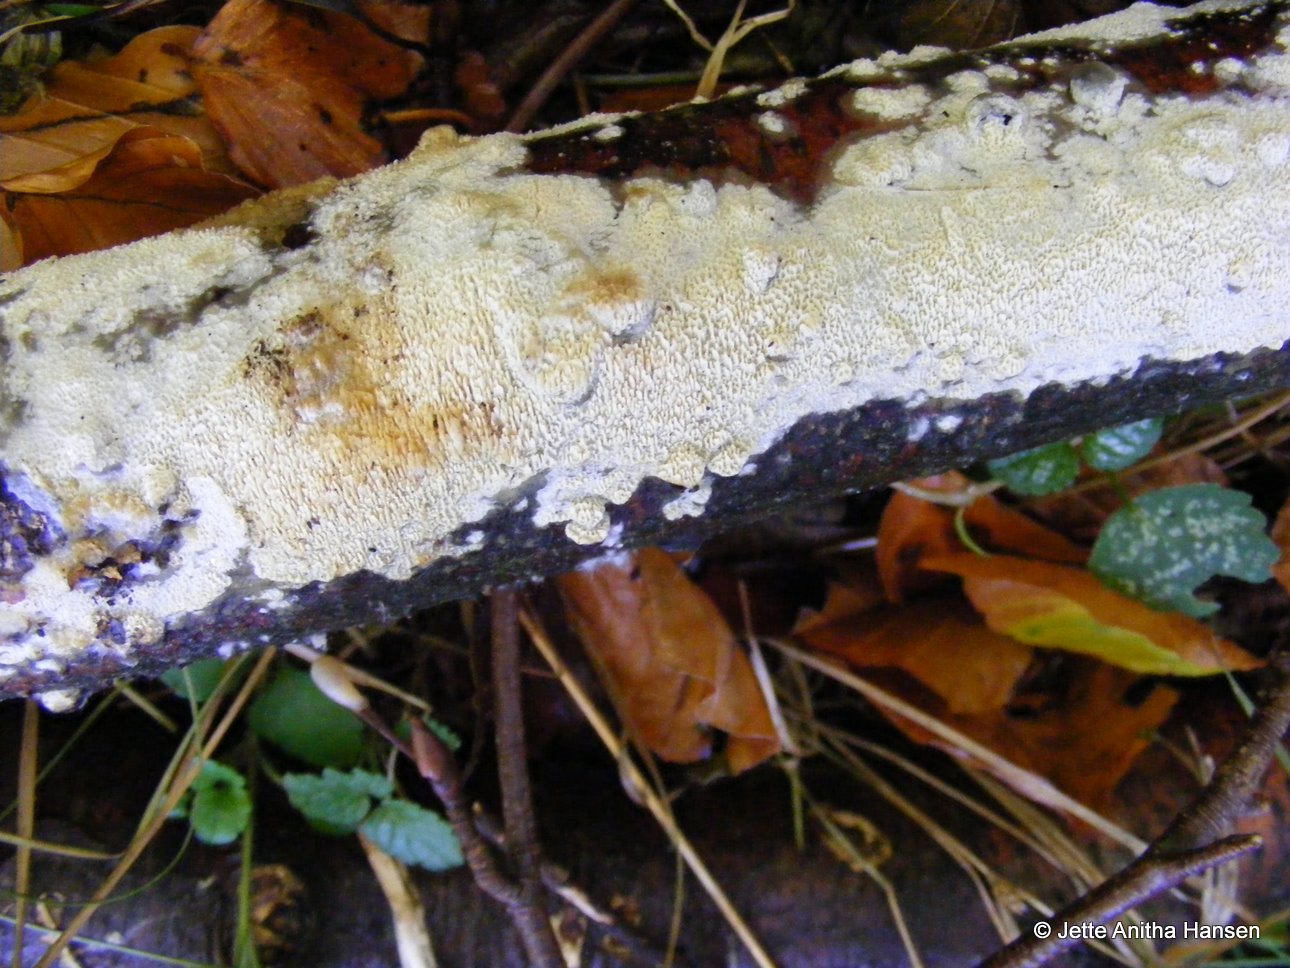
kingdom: Fungi
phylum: Basidiomycota
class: Agaricomycetes
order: Hymenochaetales
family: Schizoporaceae
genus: Schizopora
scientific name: Schizopora paradoxa
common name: hvid tandsvamp
